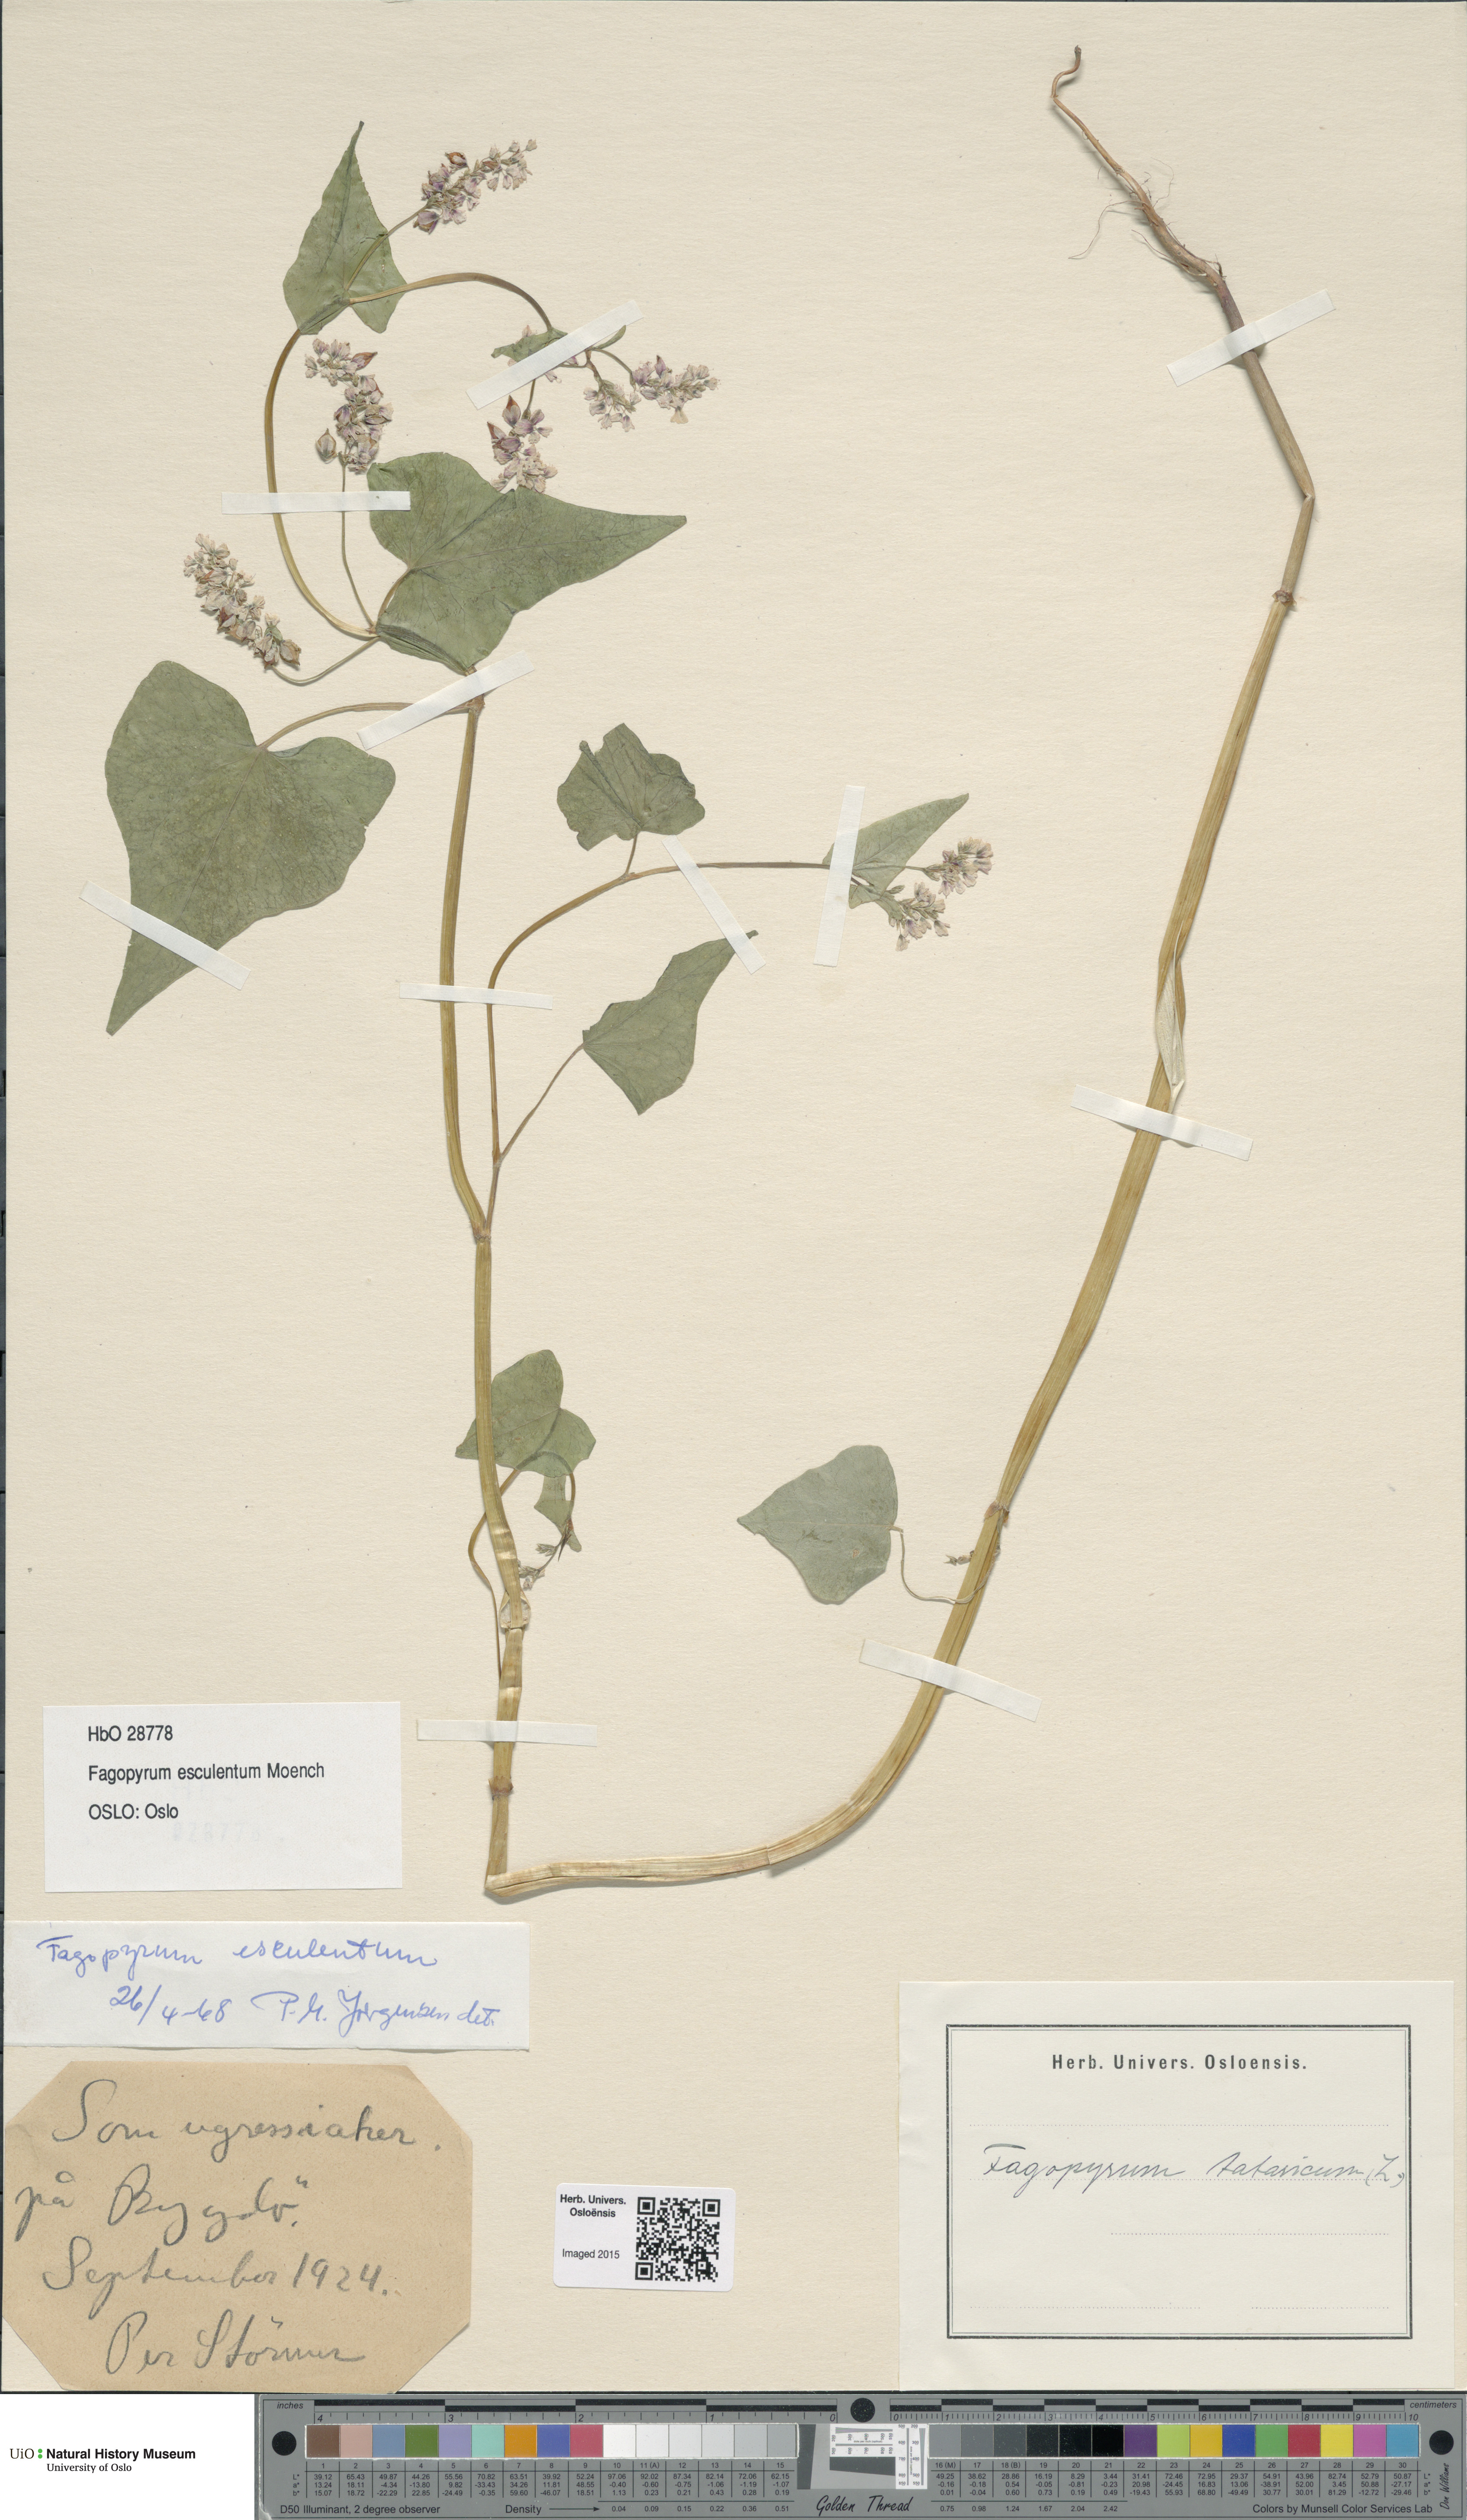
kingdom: Plantae
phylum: Tracheophyta
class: Magnoliopsida
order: Caryophyllales
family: Polygonaceae
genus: Fagopyrum
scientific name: Fagopyrum esculentum
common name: Buckwheat
